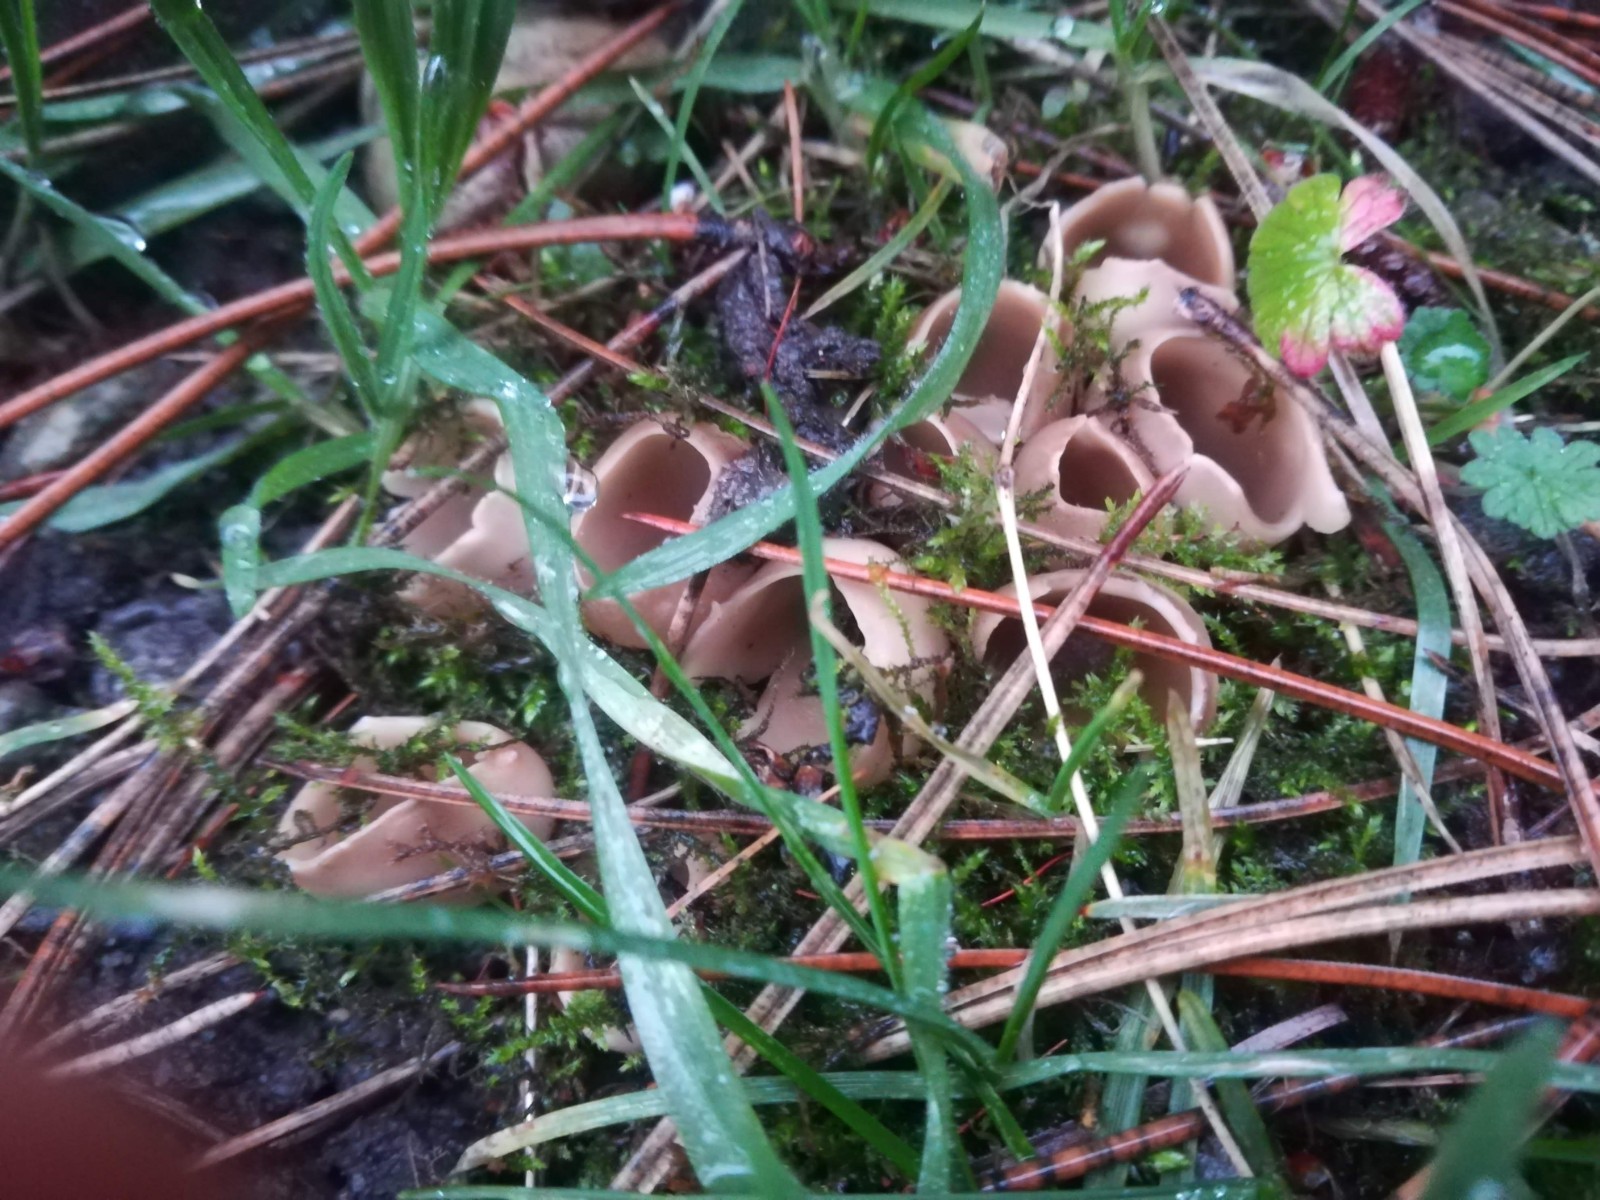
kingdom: Fungi
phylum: Ascomycota
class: Pezizomycetes
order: Pezizales
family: Helvellaceae
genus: Dissingia
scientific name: Dissingia leucomelaena
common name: sorthvid foldhat
